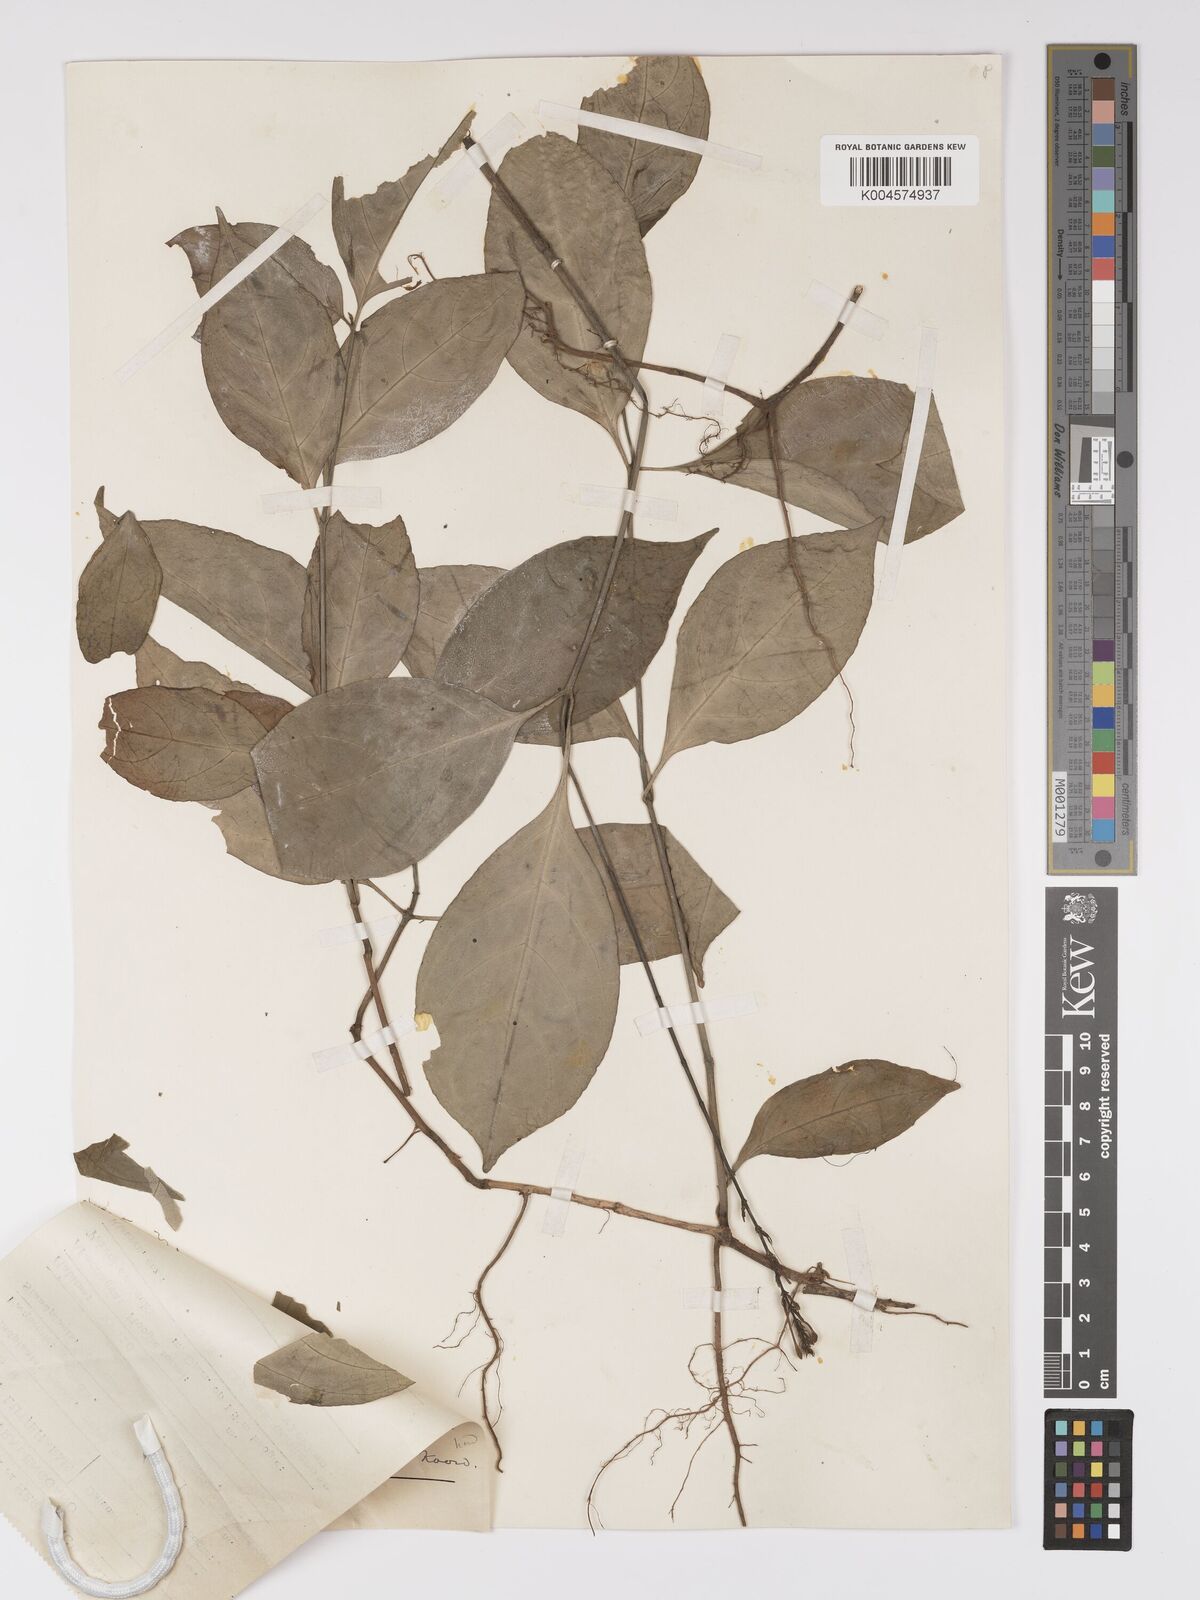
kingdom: Plantae
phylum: Tracheophyta
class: Magnoliopsida
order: Lamiales
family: Acanthaceae
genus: Pseuderanthemum
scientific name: Pseuderanthemum acuminatissimum
